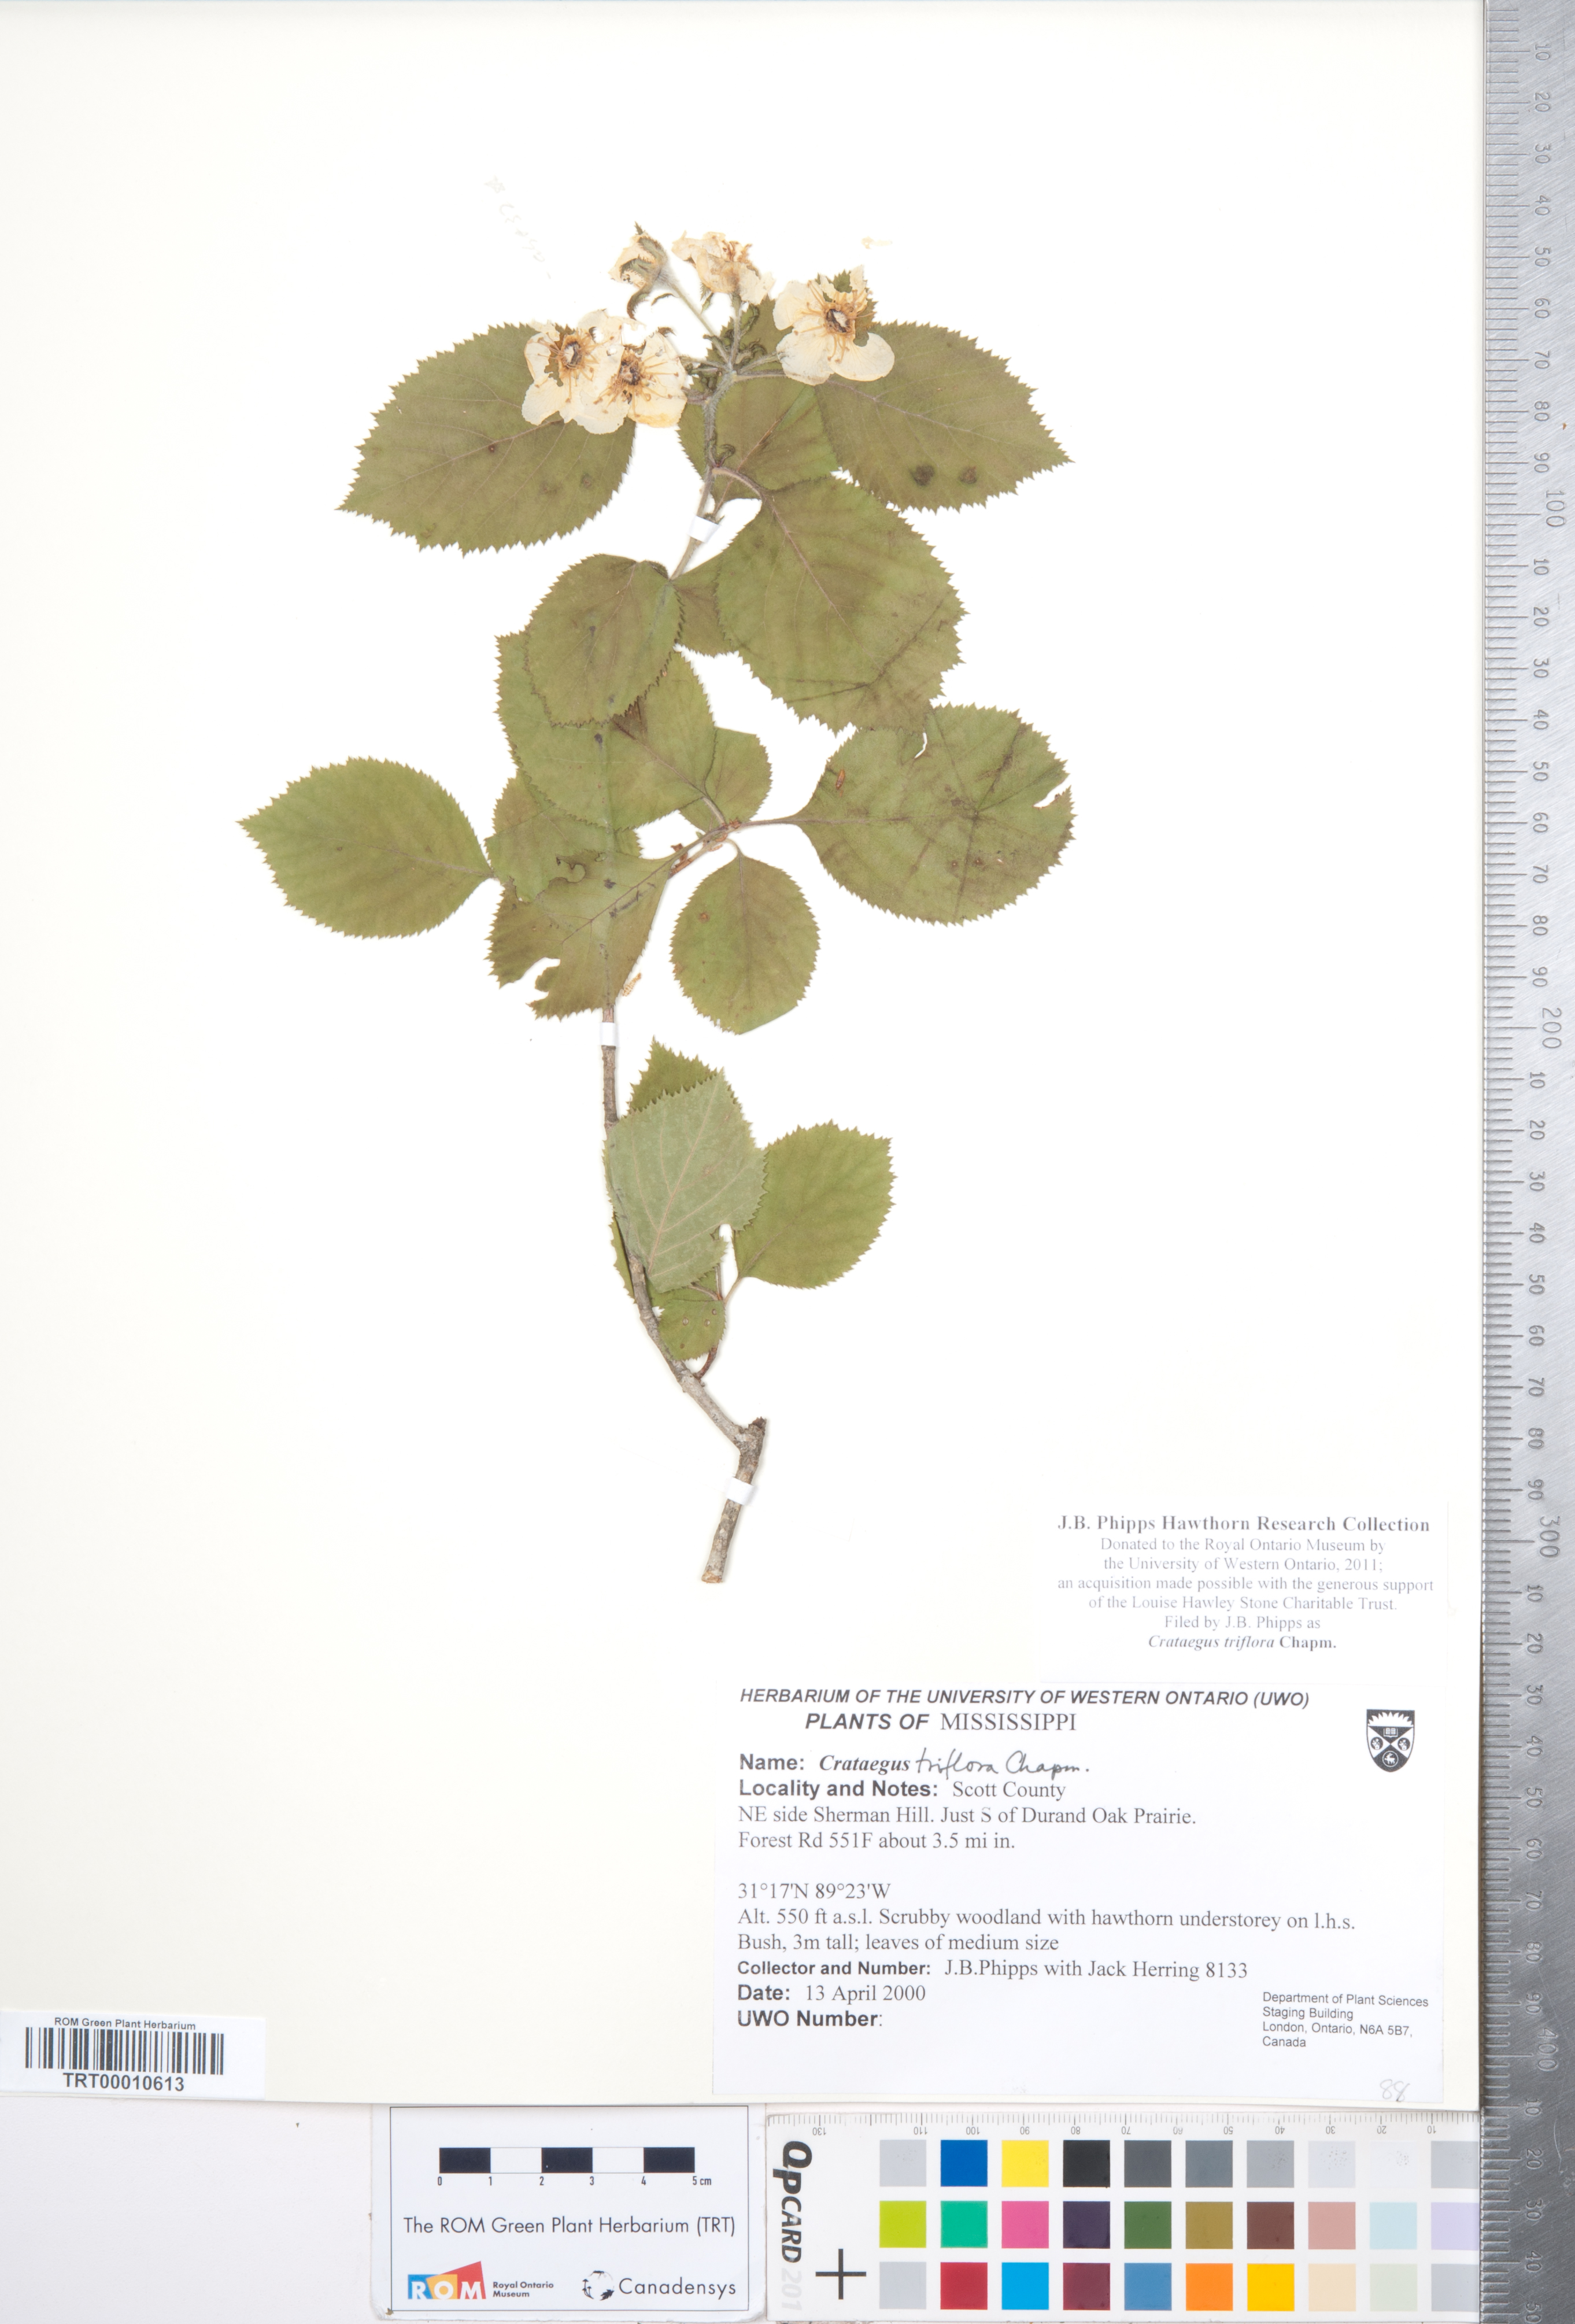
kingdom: Plantae
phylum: Tracheophyta
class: Magnoliopsida
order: Rosales
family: Rosaceae
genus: Crataegus
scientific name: Crataegus triflora
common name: Three-flower hawthorn
